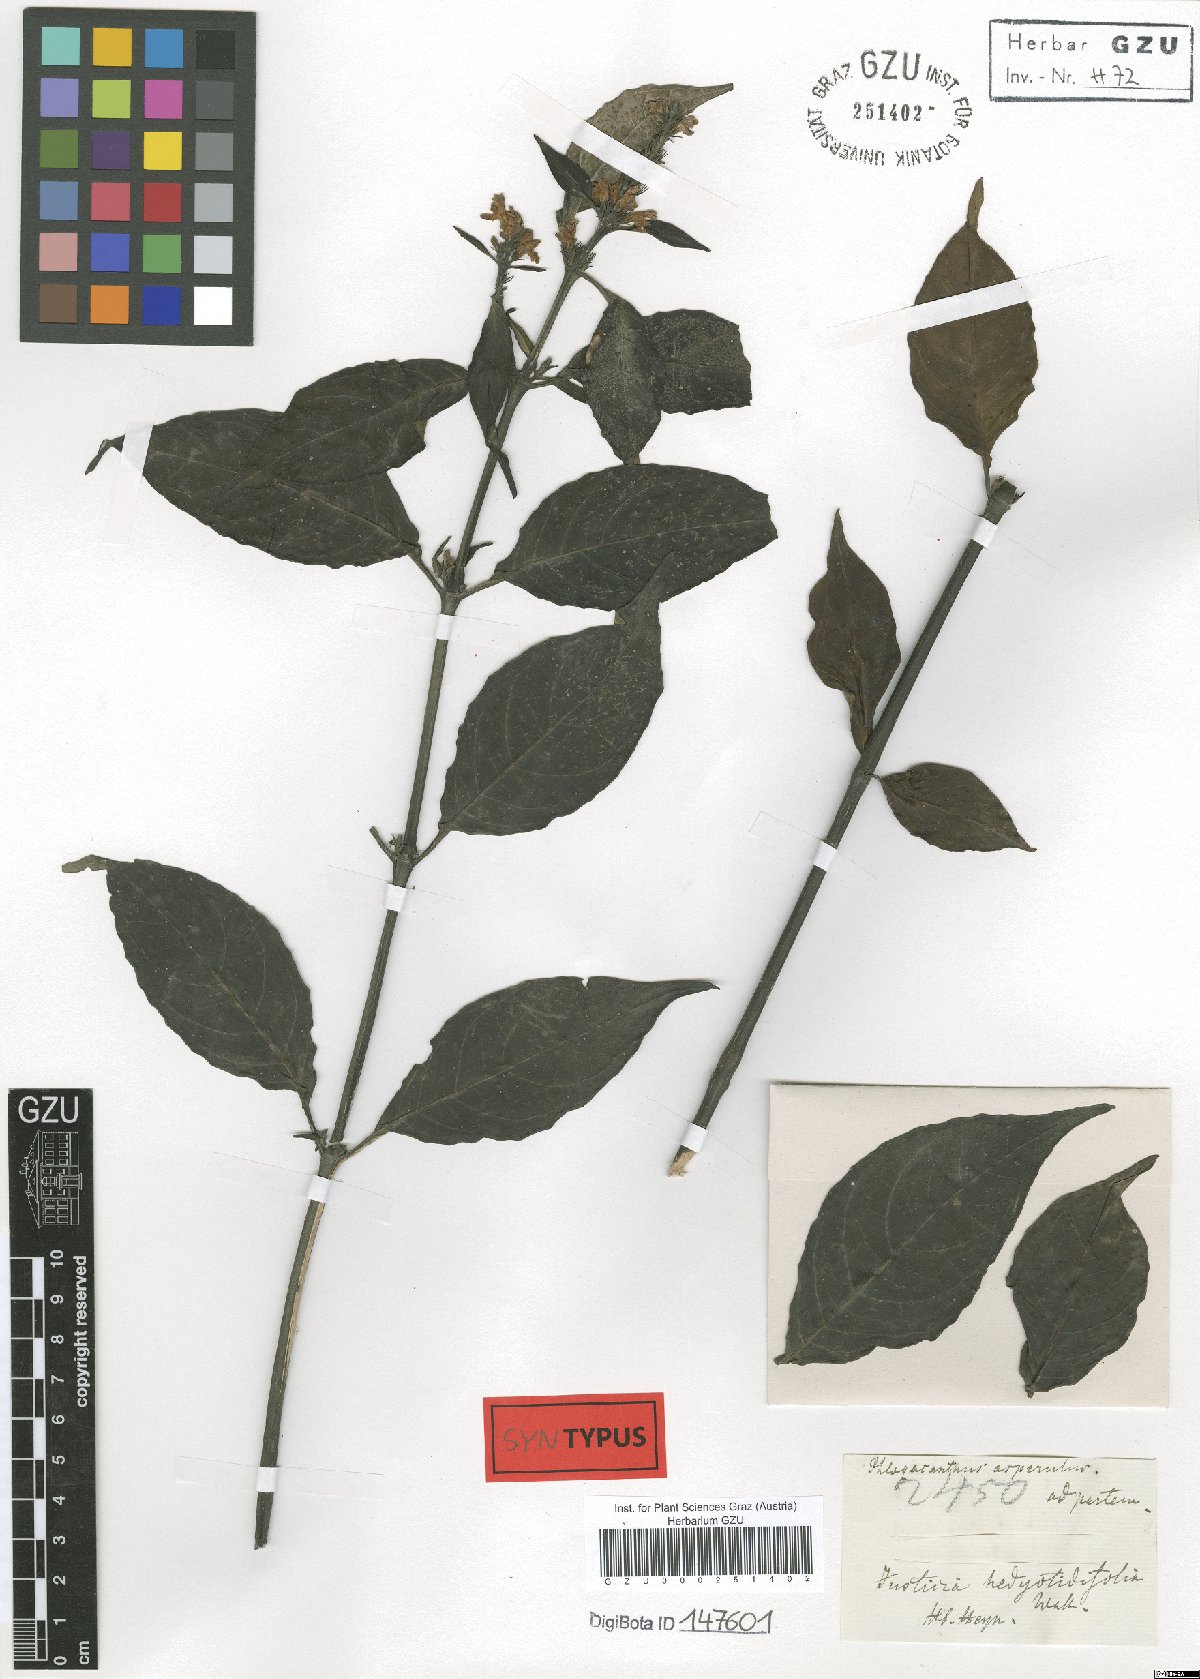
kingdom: Plantae
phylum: Tracheophyta
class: Magnoliopsida
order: Lamiales
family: Acanthaceae
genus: Phlogacanthus
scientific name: Phlogacanthus vitellinus
